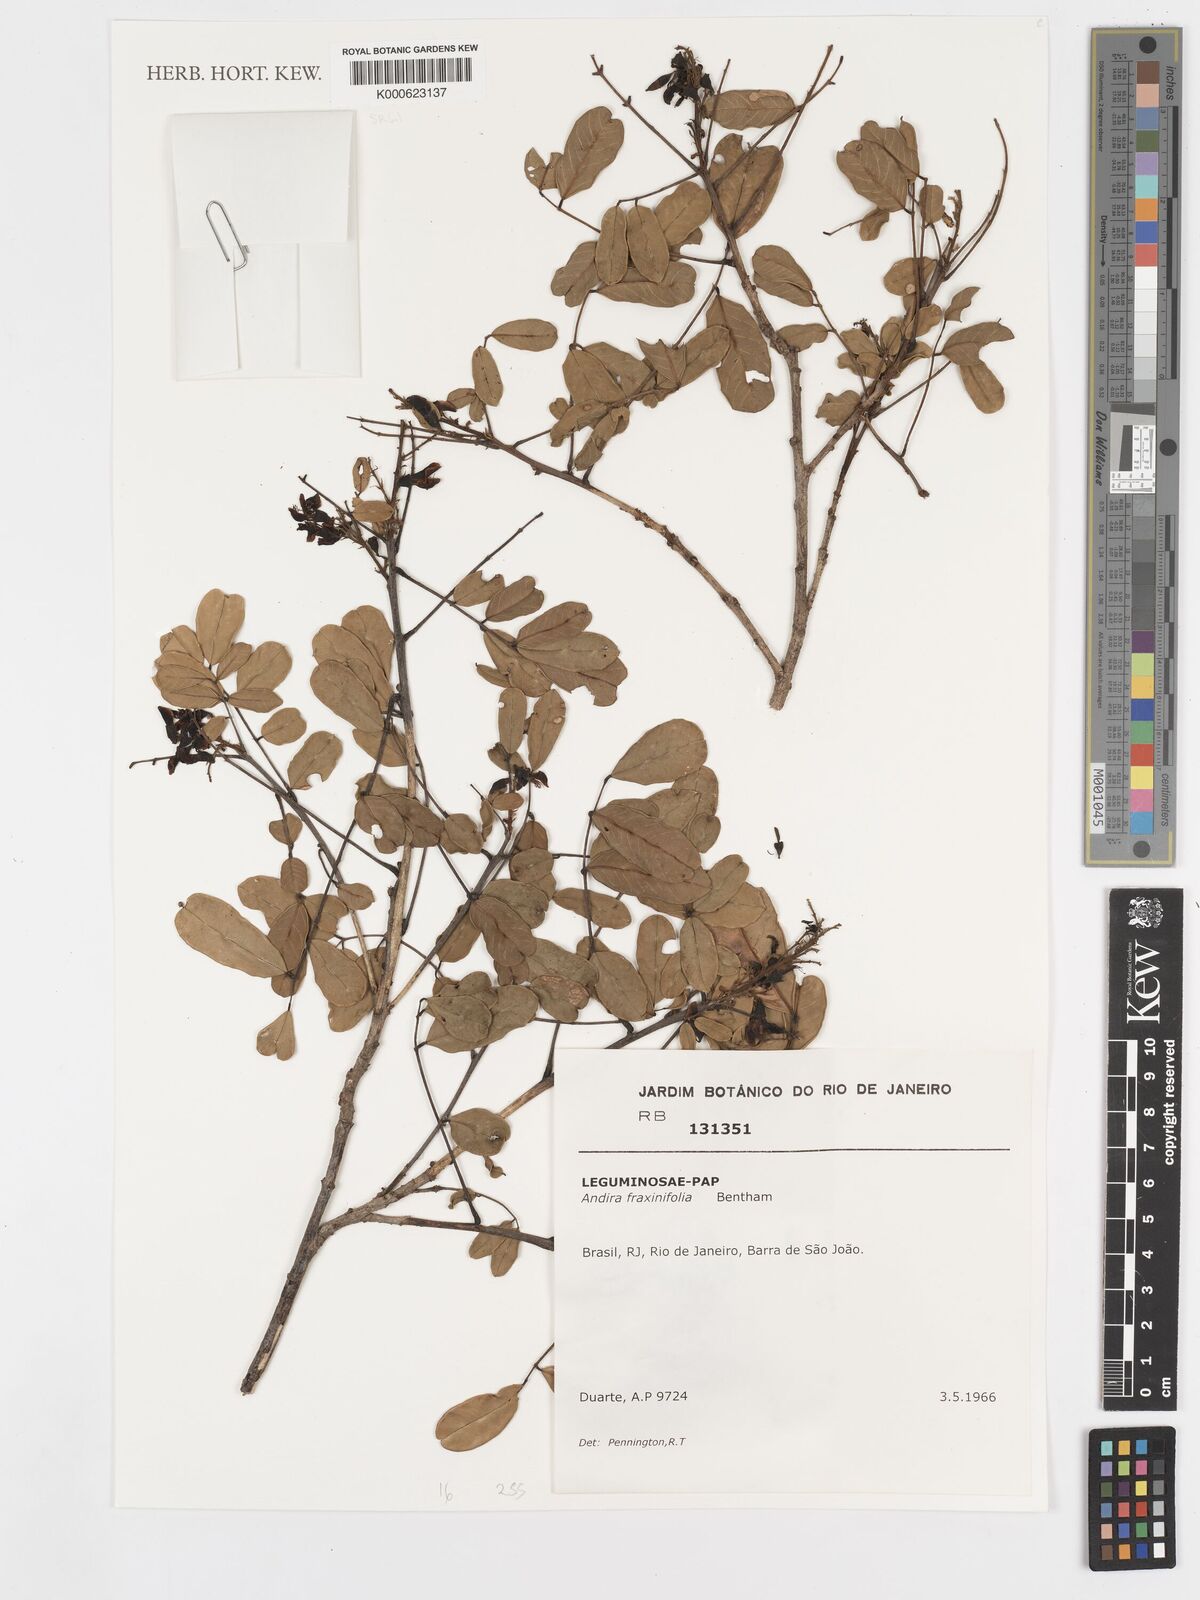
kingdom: Plantae
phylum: Tracheophyta
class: Magnoliopsida
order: Fabales
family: Fabaceae
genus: Andira
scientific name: Andira fraxinifolia
